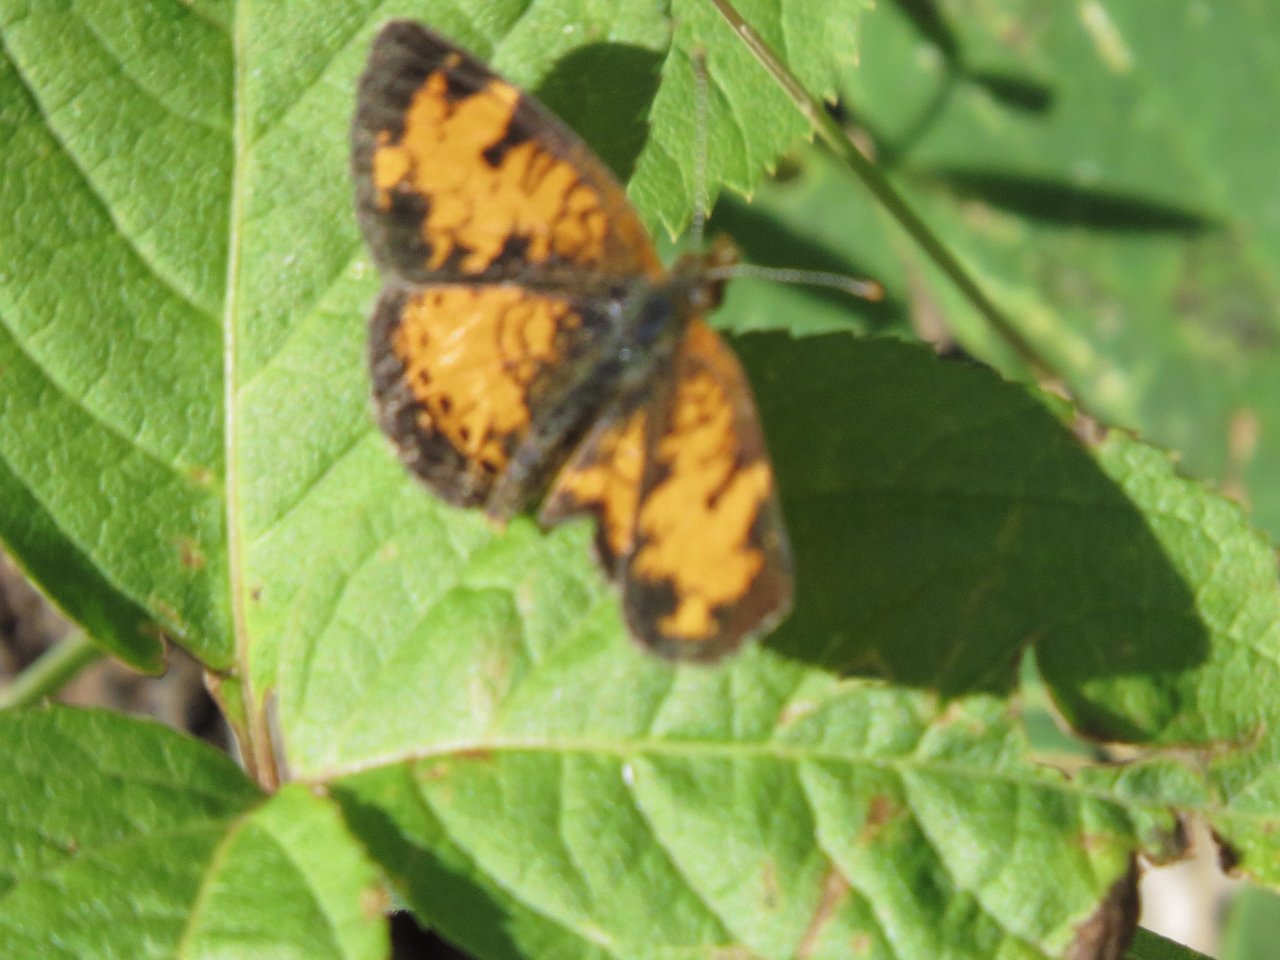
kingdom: Animalia
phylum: Arthropoda
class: Insecta
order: Lepidoptera
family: Nymphalidae
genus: Phyciodes
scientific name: Phyciodes tharos
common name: Northern Crescent
